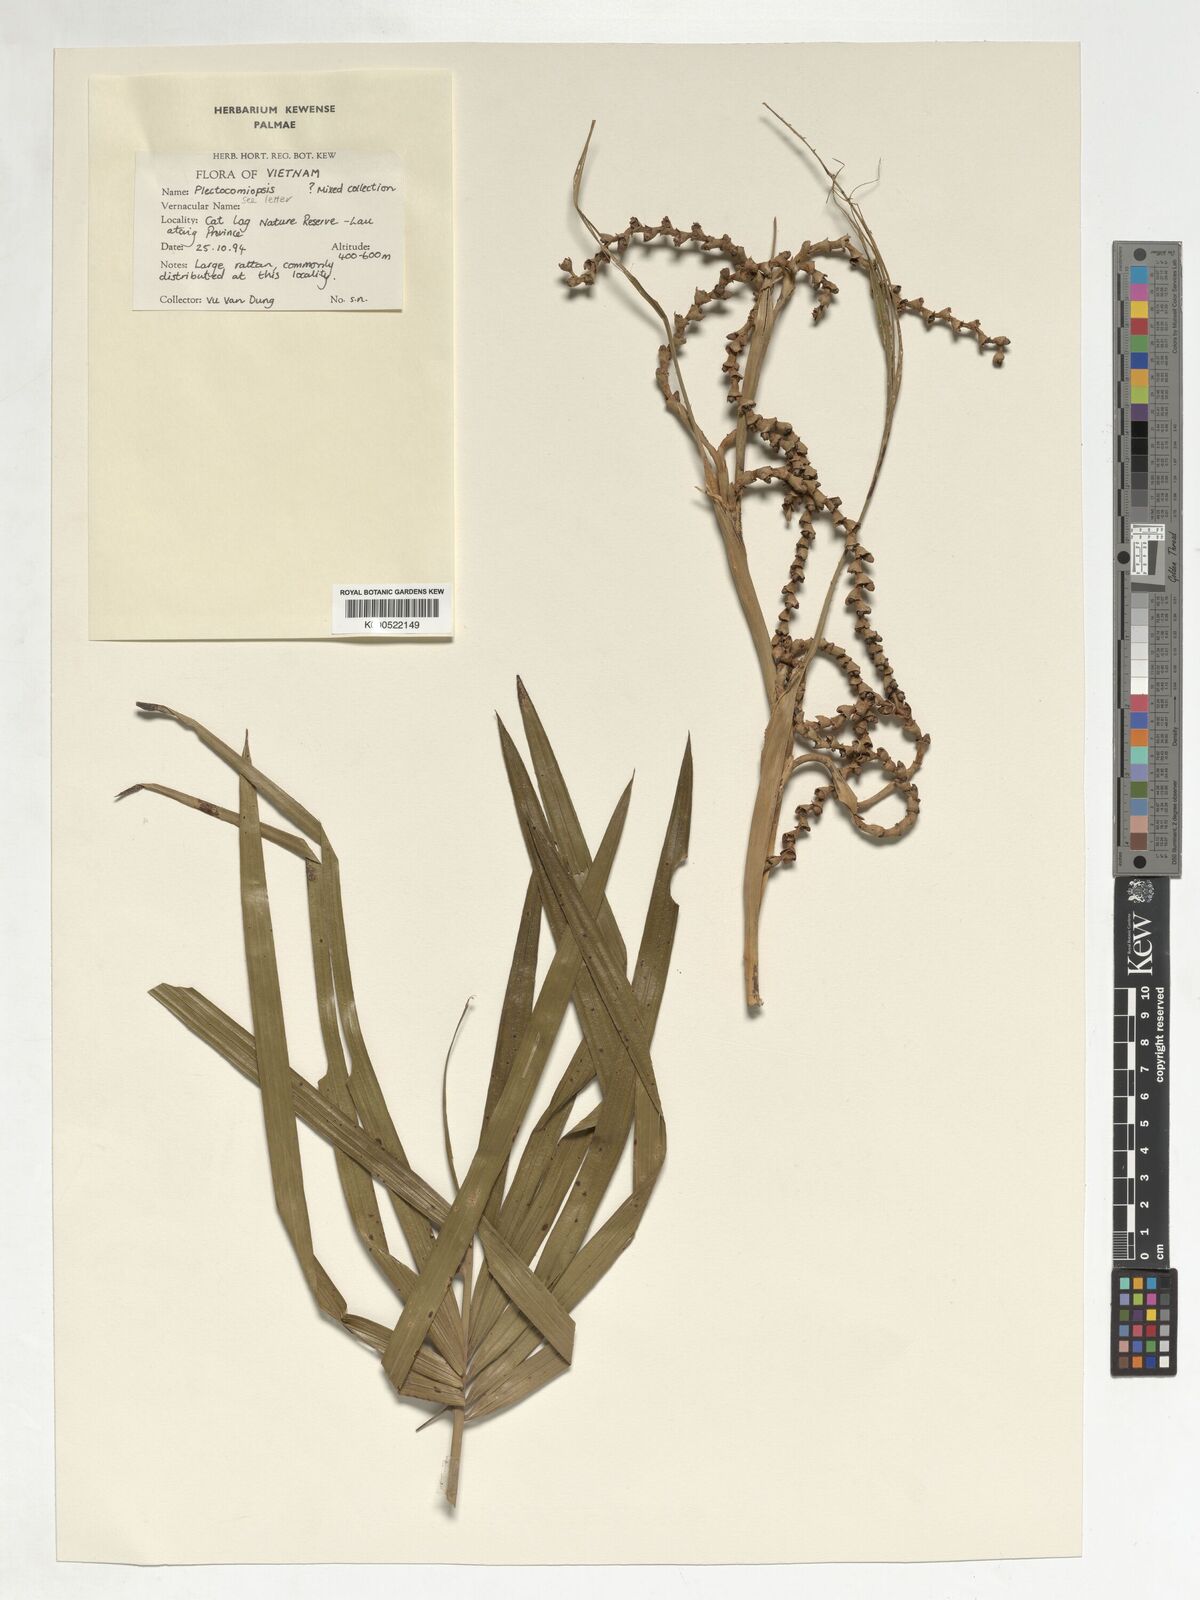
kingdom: Plantae
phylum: Tracheophyta
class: Liliopsida
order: Arecales
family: Arecaceae
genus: Plectocomiopsis
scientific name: Plectocomiopsis
